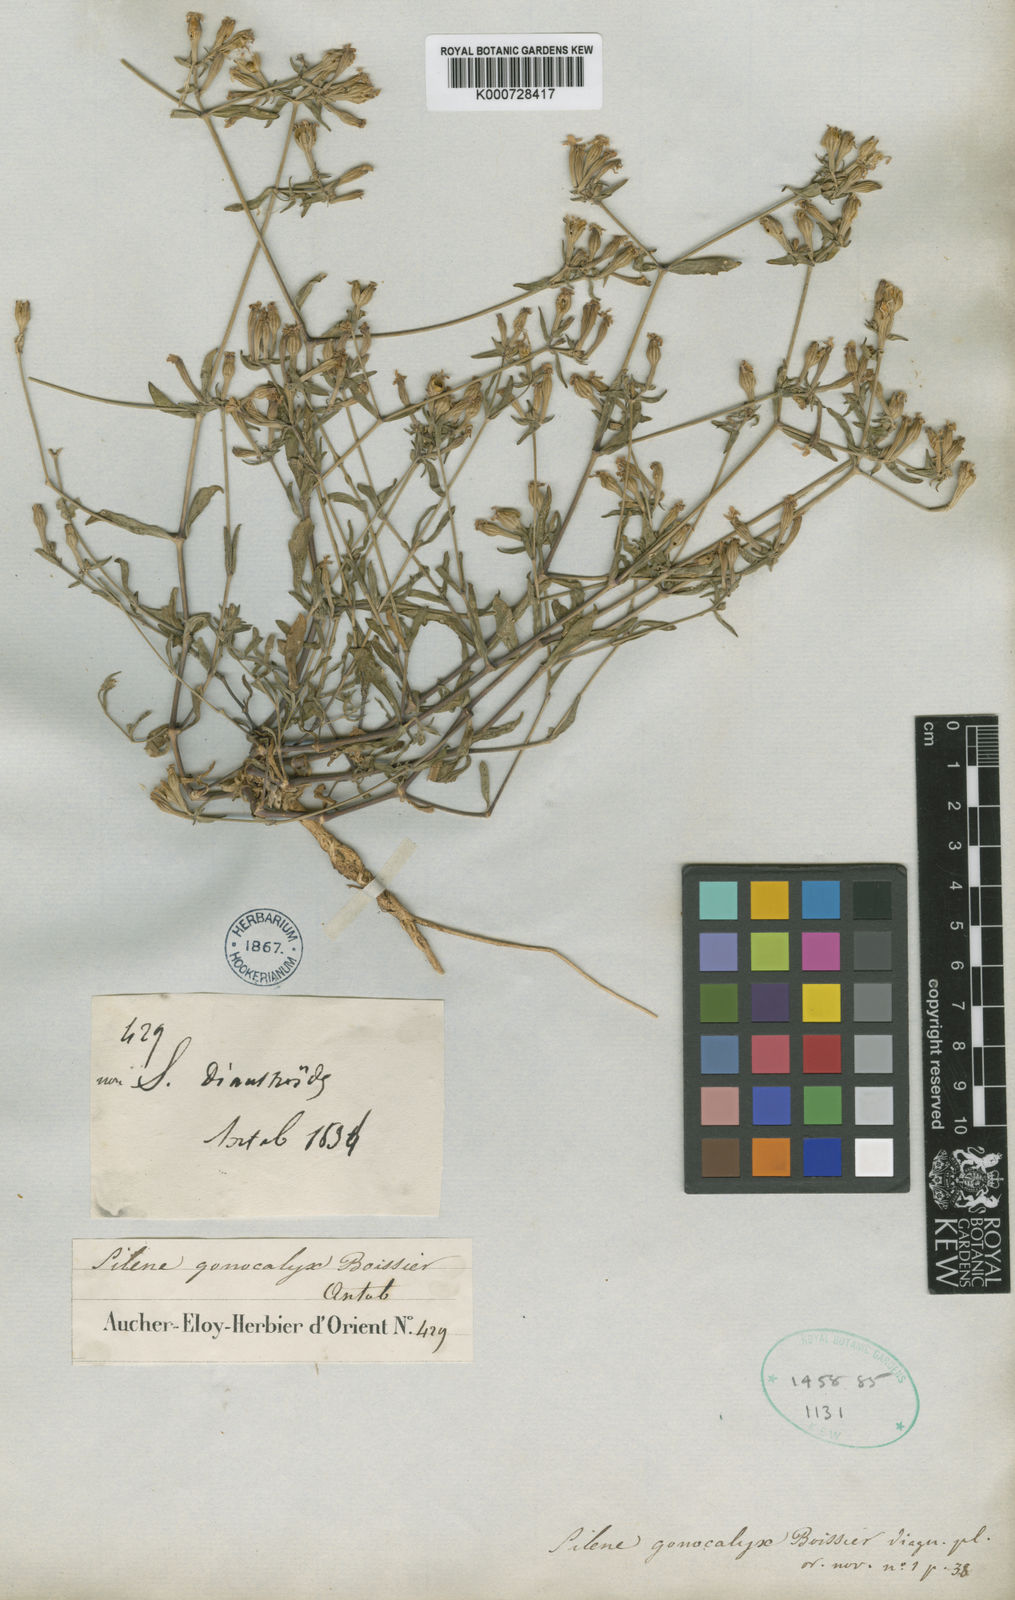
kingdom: Plantae
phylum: Tracheophyta
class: Magnoliopsida
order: Caryophyllales
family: Caryophyllaceae
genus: Silene
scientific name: Silene crassipes
